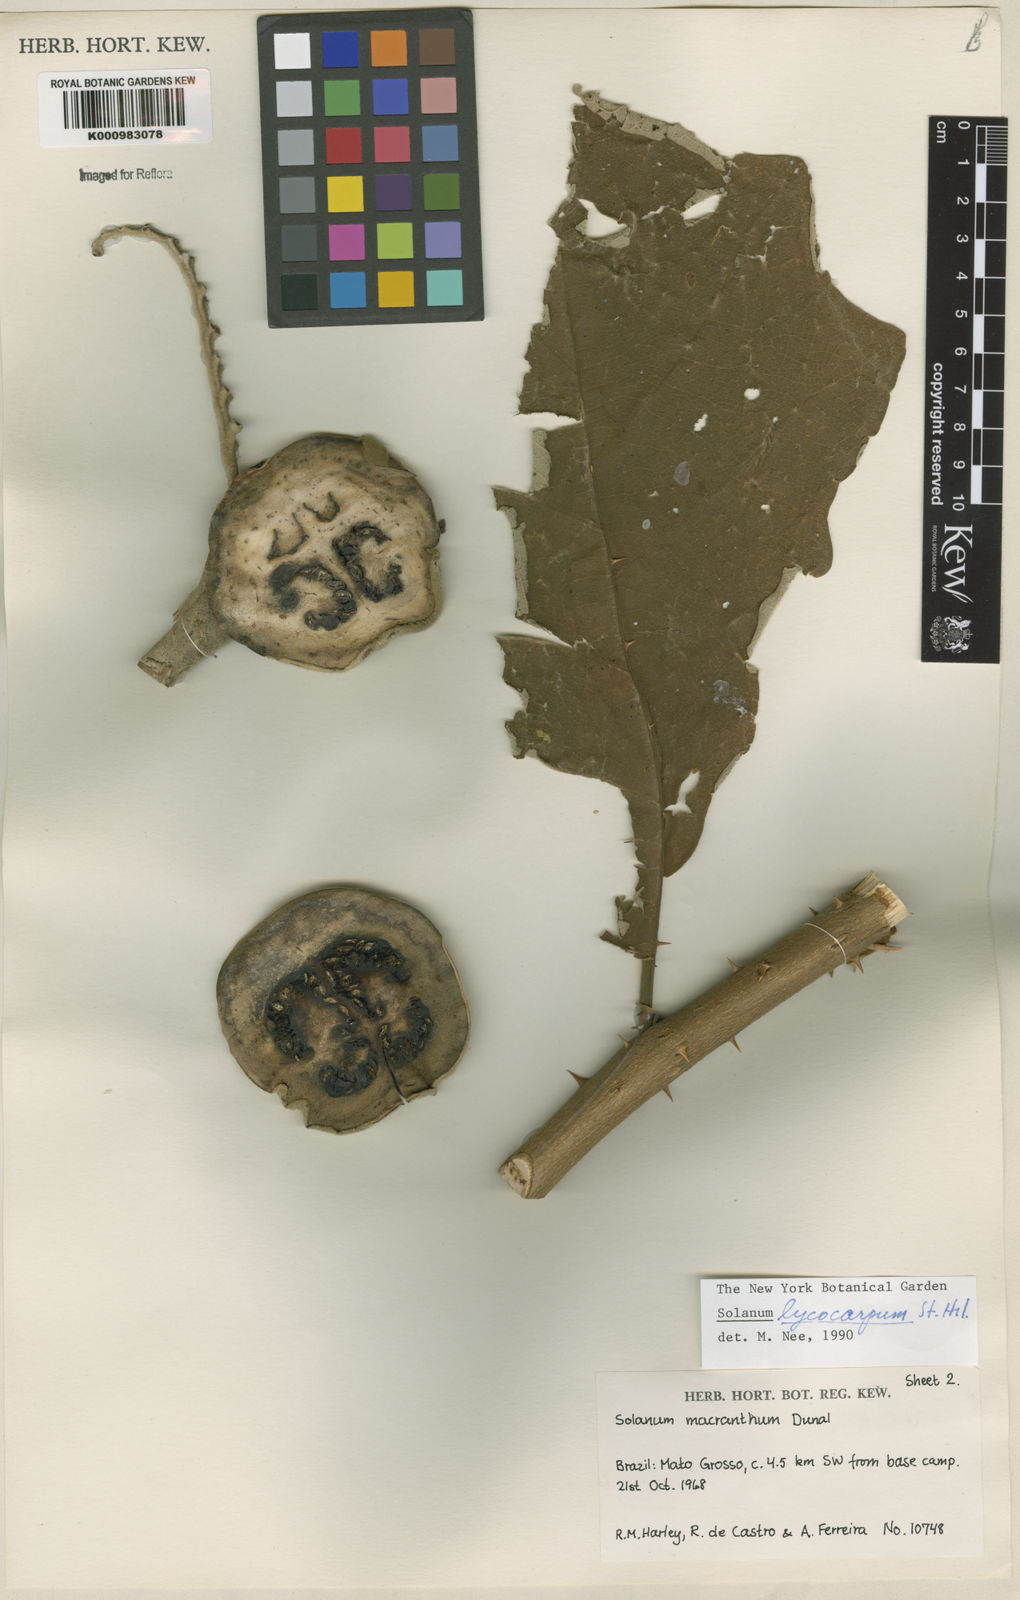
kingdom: Plantae
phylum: Tracheophyta
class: Magnoliopsida
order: Solanales
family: Solanaceae
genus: Solanum
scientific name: Solanum lycocarpum
